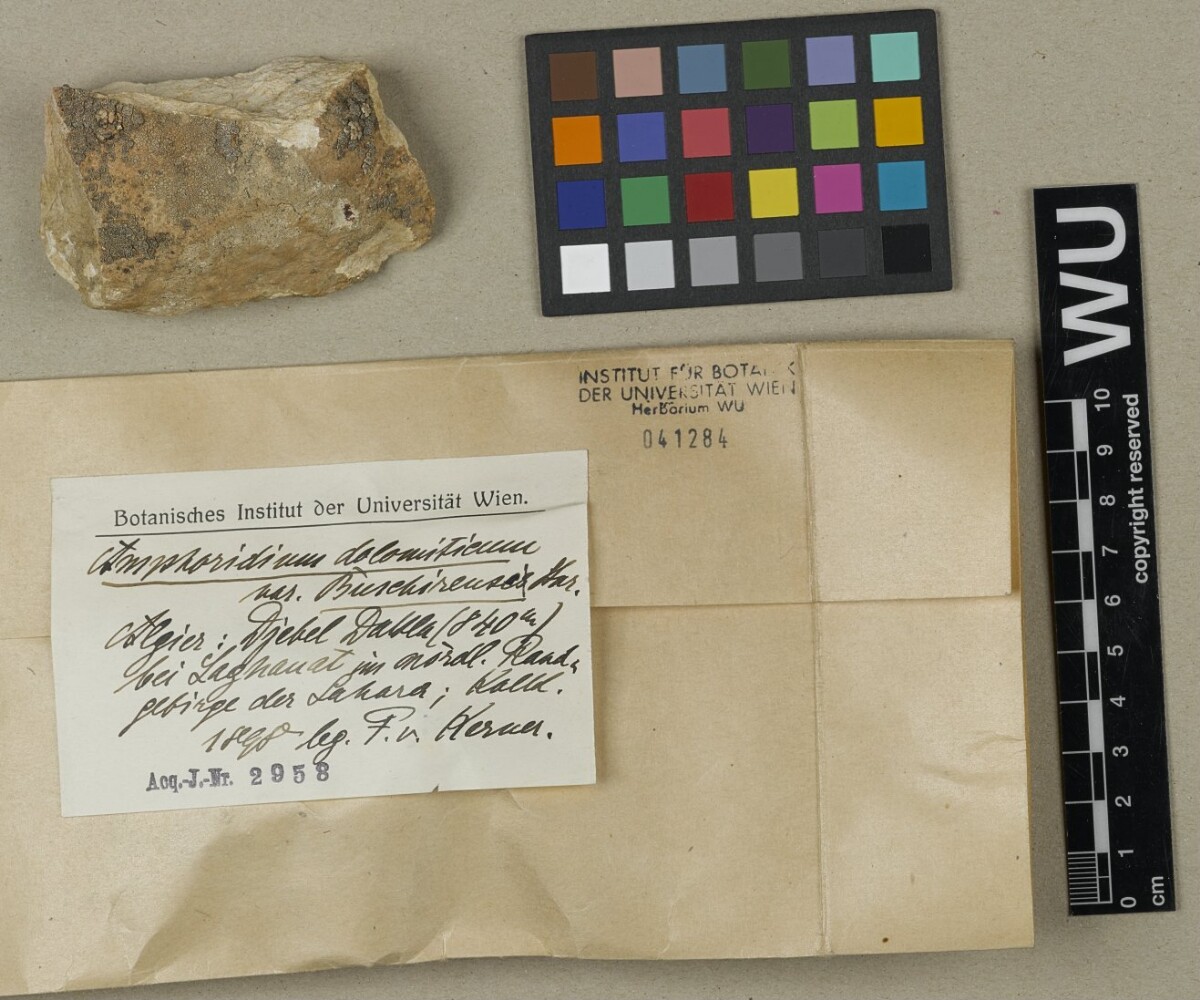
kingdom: Fungi
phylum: Ascomycota
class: Eurotiomycetes
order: Verrucariales
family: Verrucariaceae
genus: Verrucaria
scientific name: Verrucaria hochstetteri
